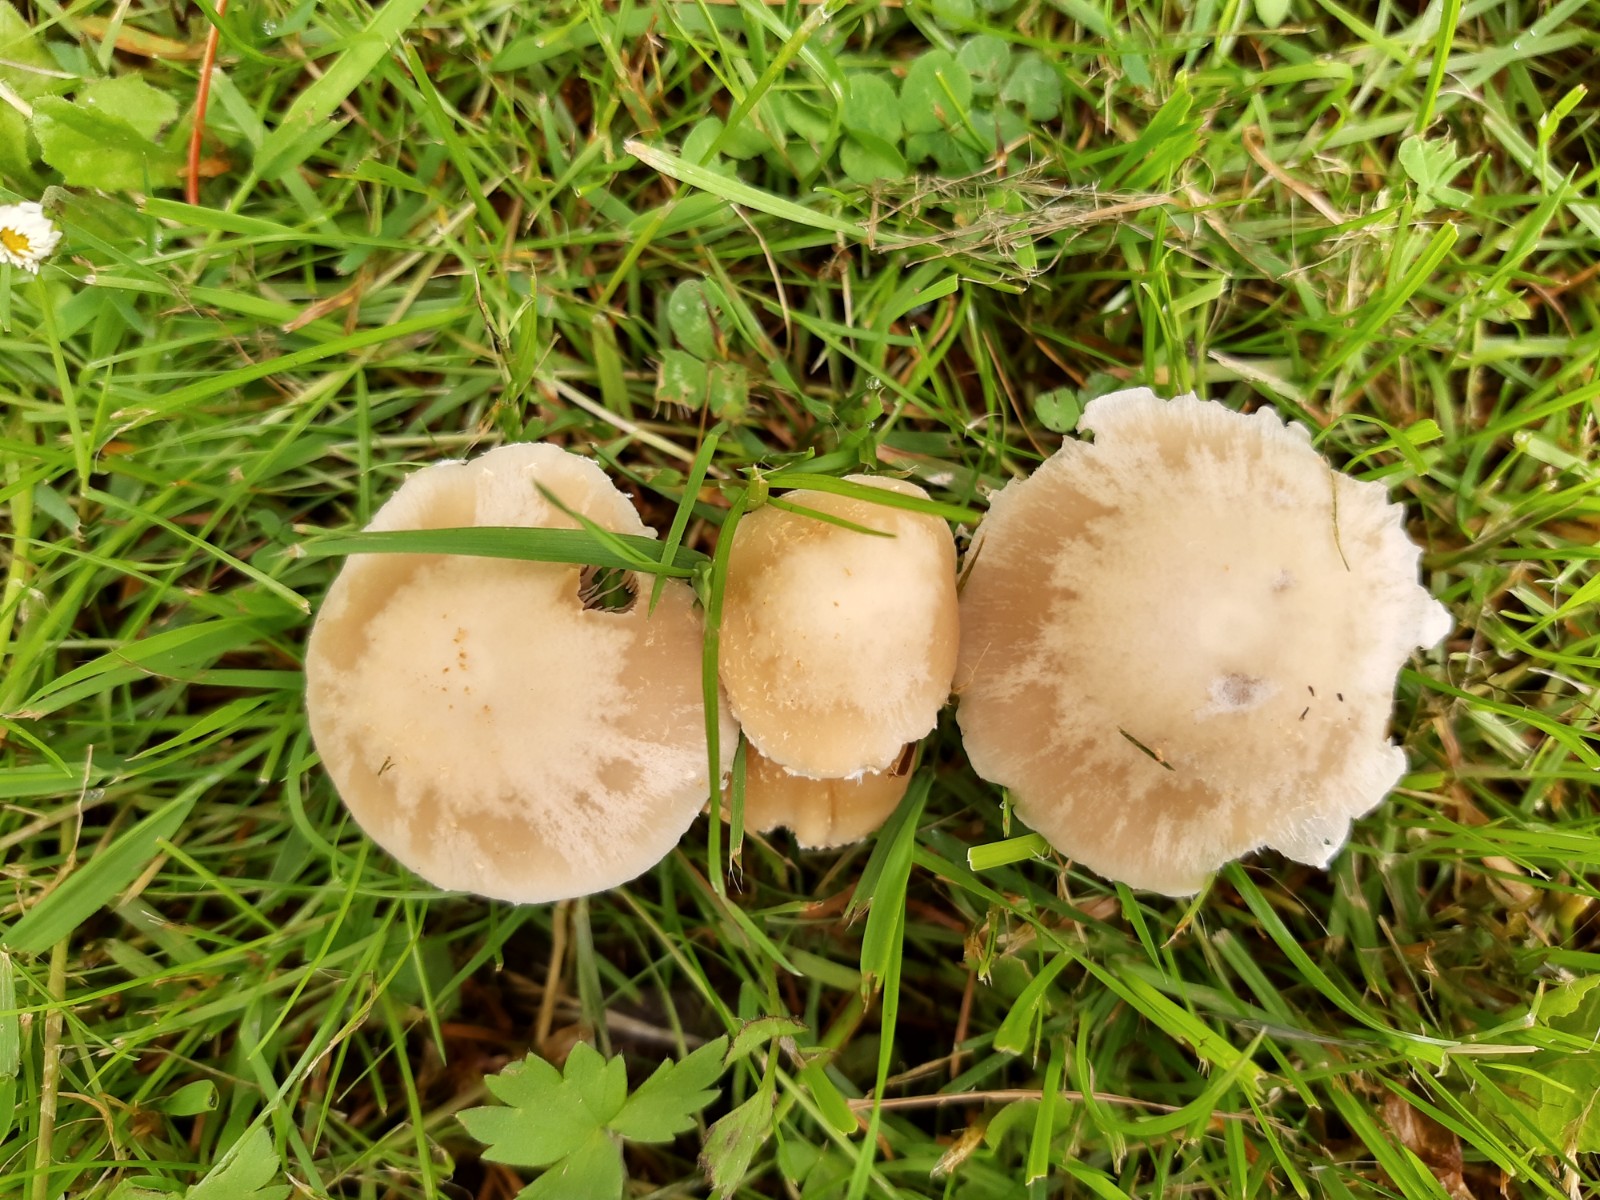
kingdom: Fungi
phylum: Basidiomycota
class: Agaricomycetes
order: Agaricales
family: Psathyrellaceae
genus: Candolleomyces
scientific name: Candolleomyces candolleanus
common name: Candolles mørkhat
